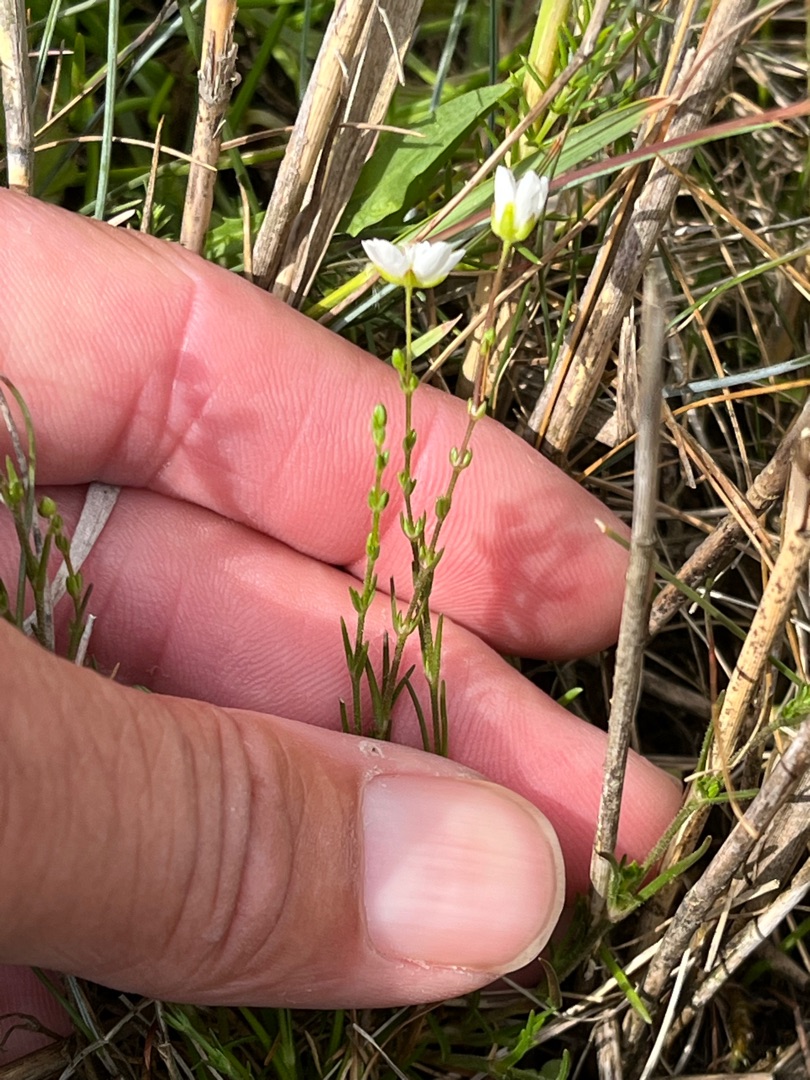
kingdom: Plantae
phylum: Tracheophyta
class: Magnoliopsida
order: Caryophyllales
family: Caryophyllaceae
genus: Sagina
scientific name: Sagina nodosa
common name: Knude-firling
